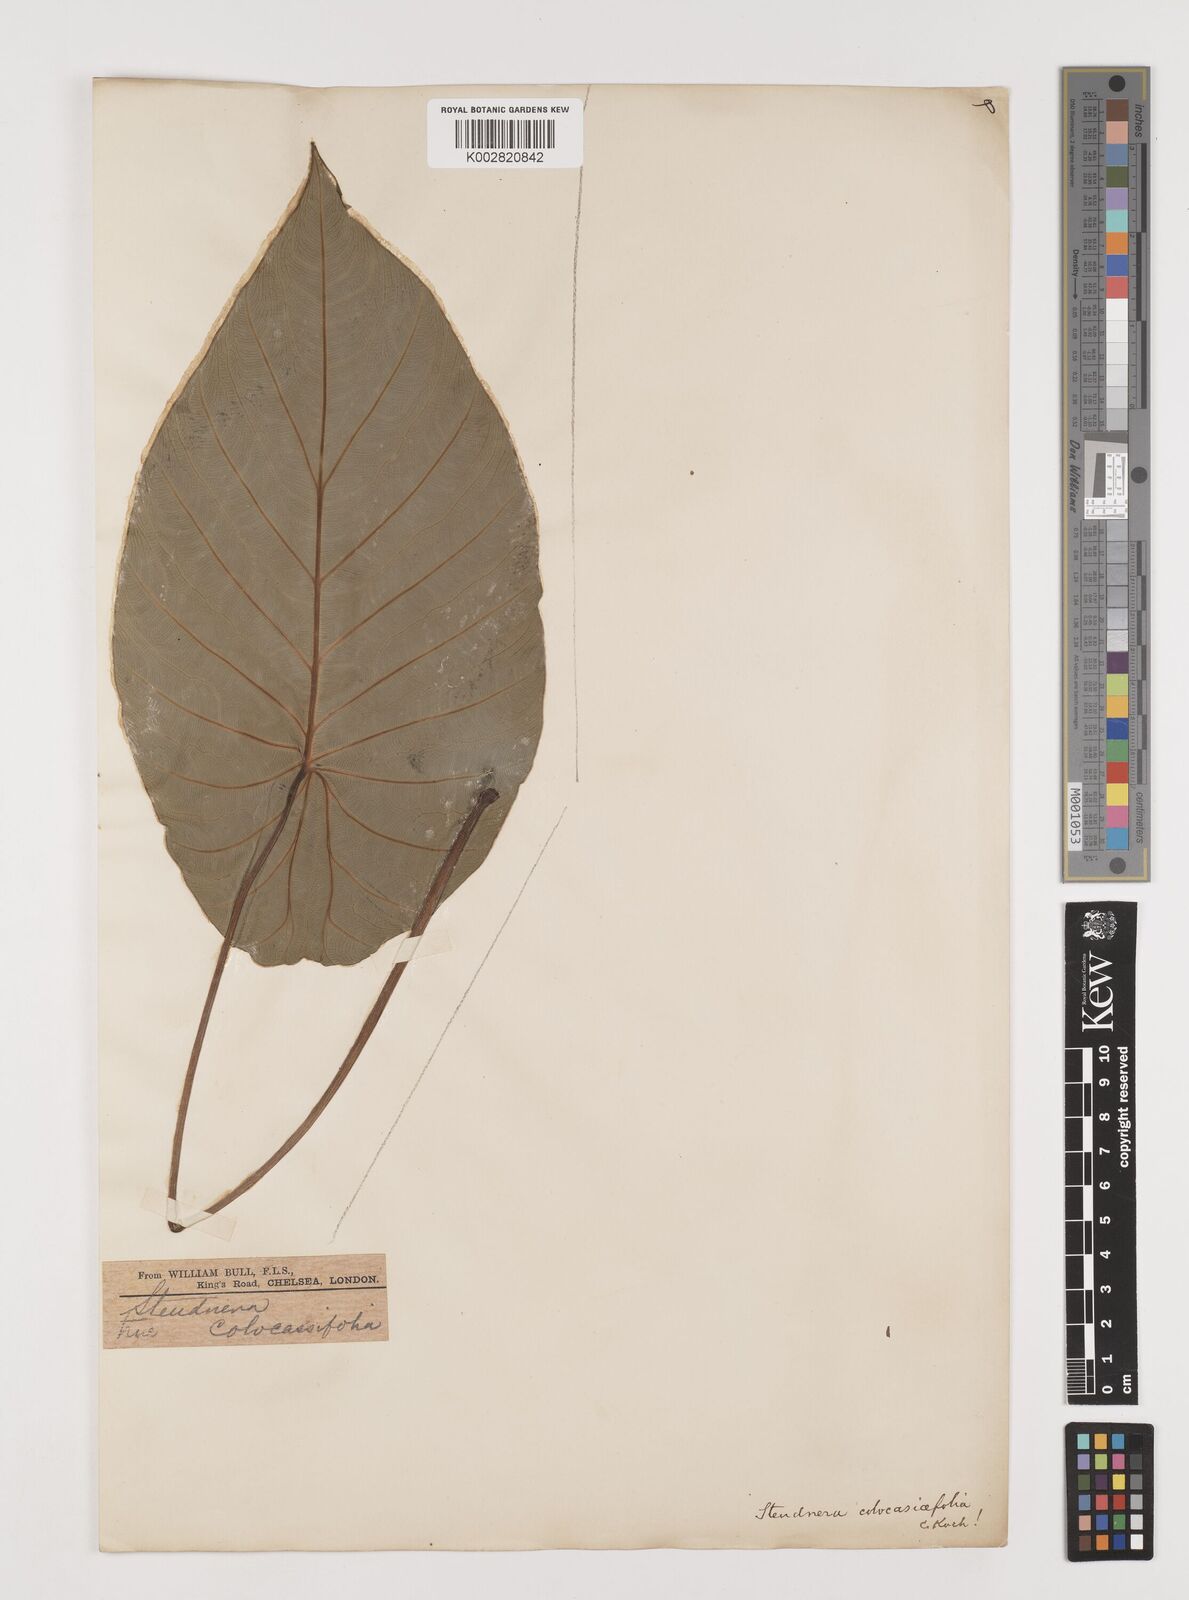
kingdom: Plantae
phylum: Tracheophyta
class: Liliopsida
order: Alismatales
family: Araceae
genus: Steudnera
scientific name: Steudnera colocasiifolia
